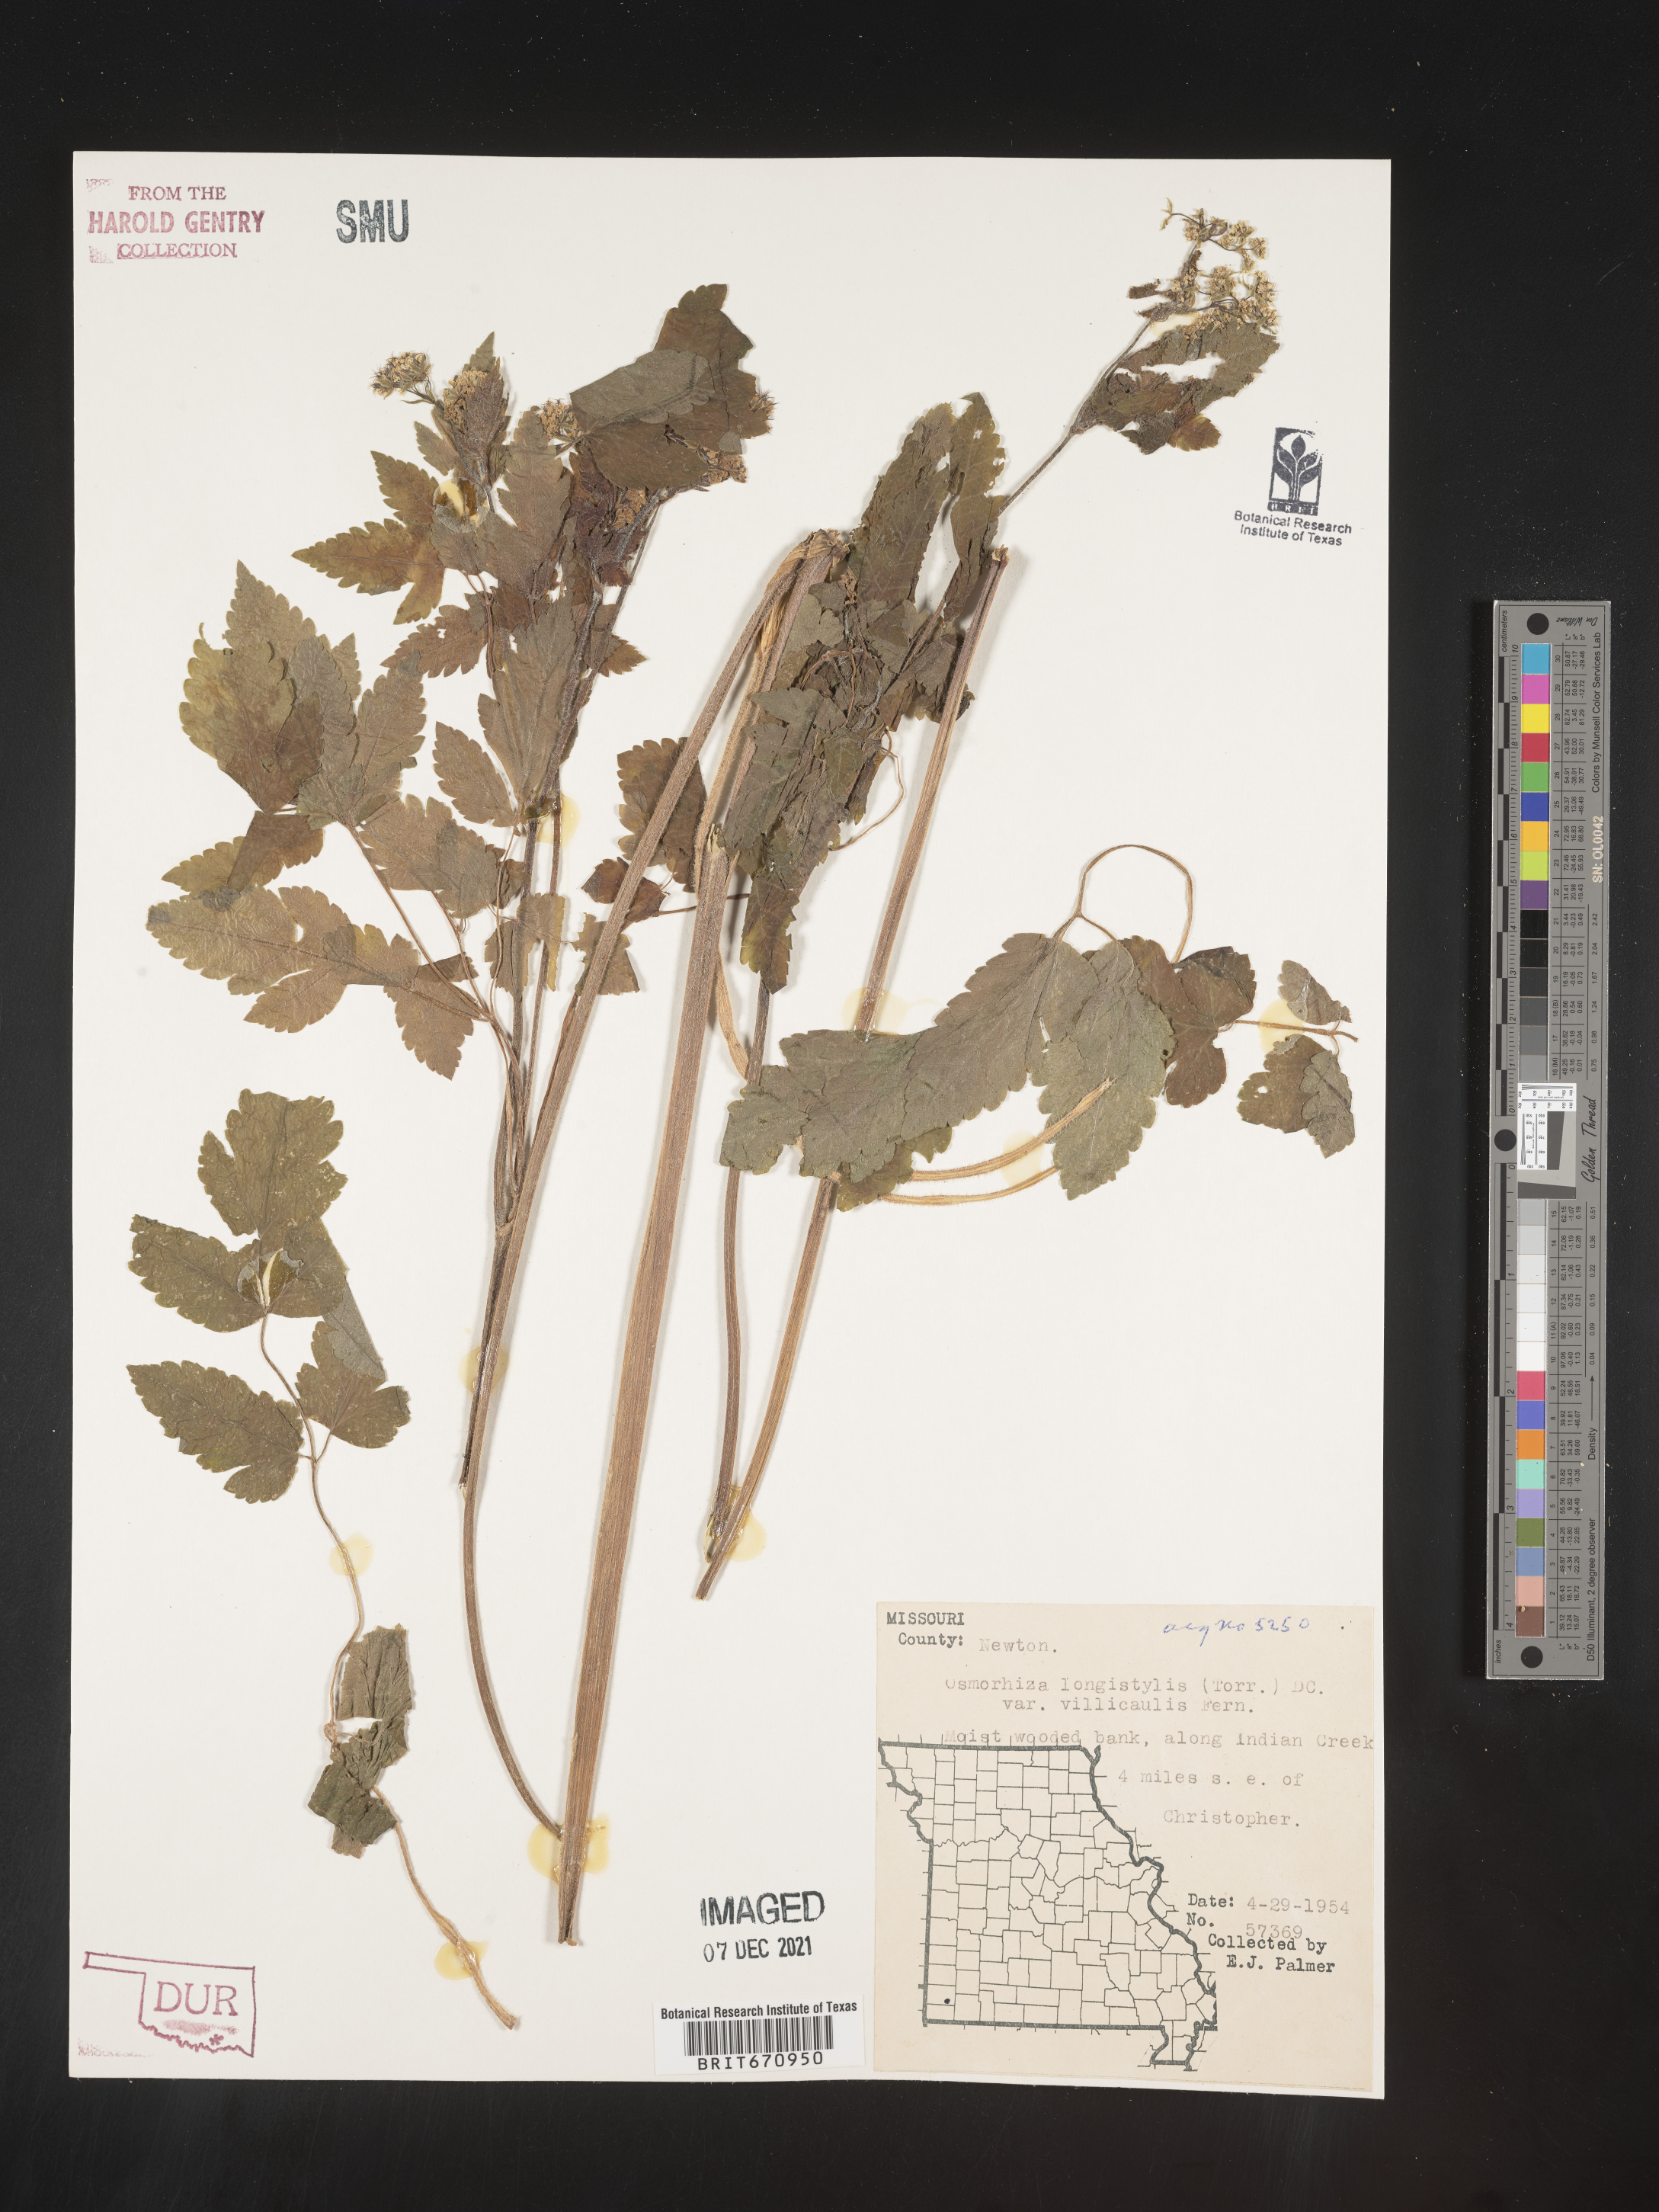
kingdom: Plantae
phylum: Tracheophyta
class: Magnoliopsida
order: Apiales
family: Apiaceae
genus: Osmorhiza
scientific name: Osmorhiza longistylis
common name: Smooth sweet cicely
